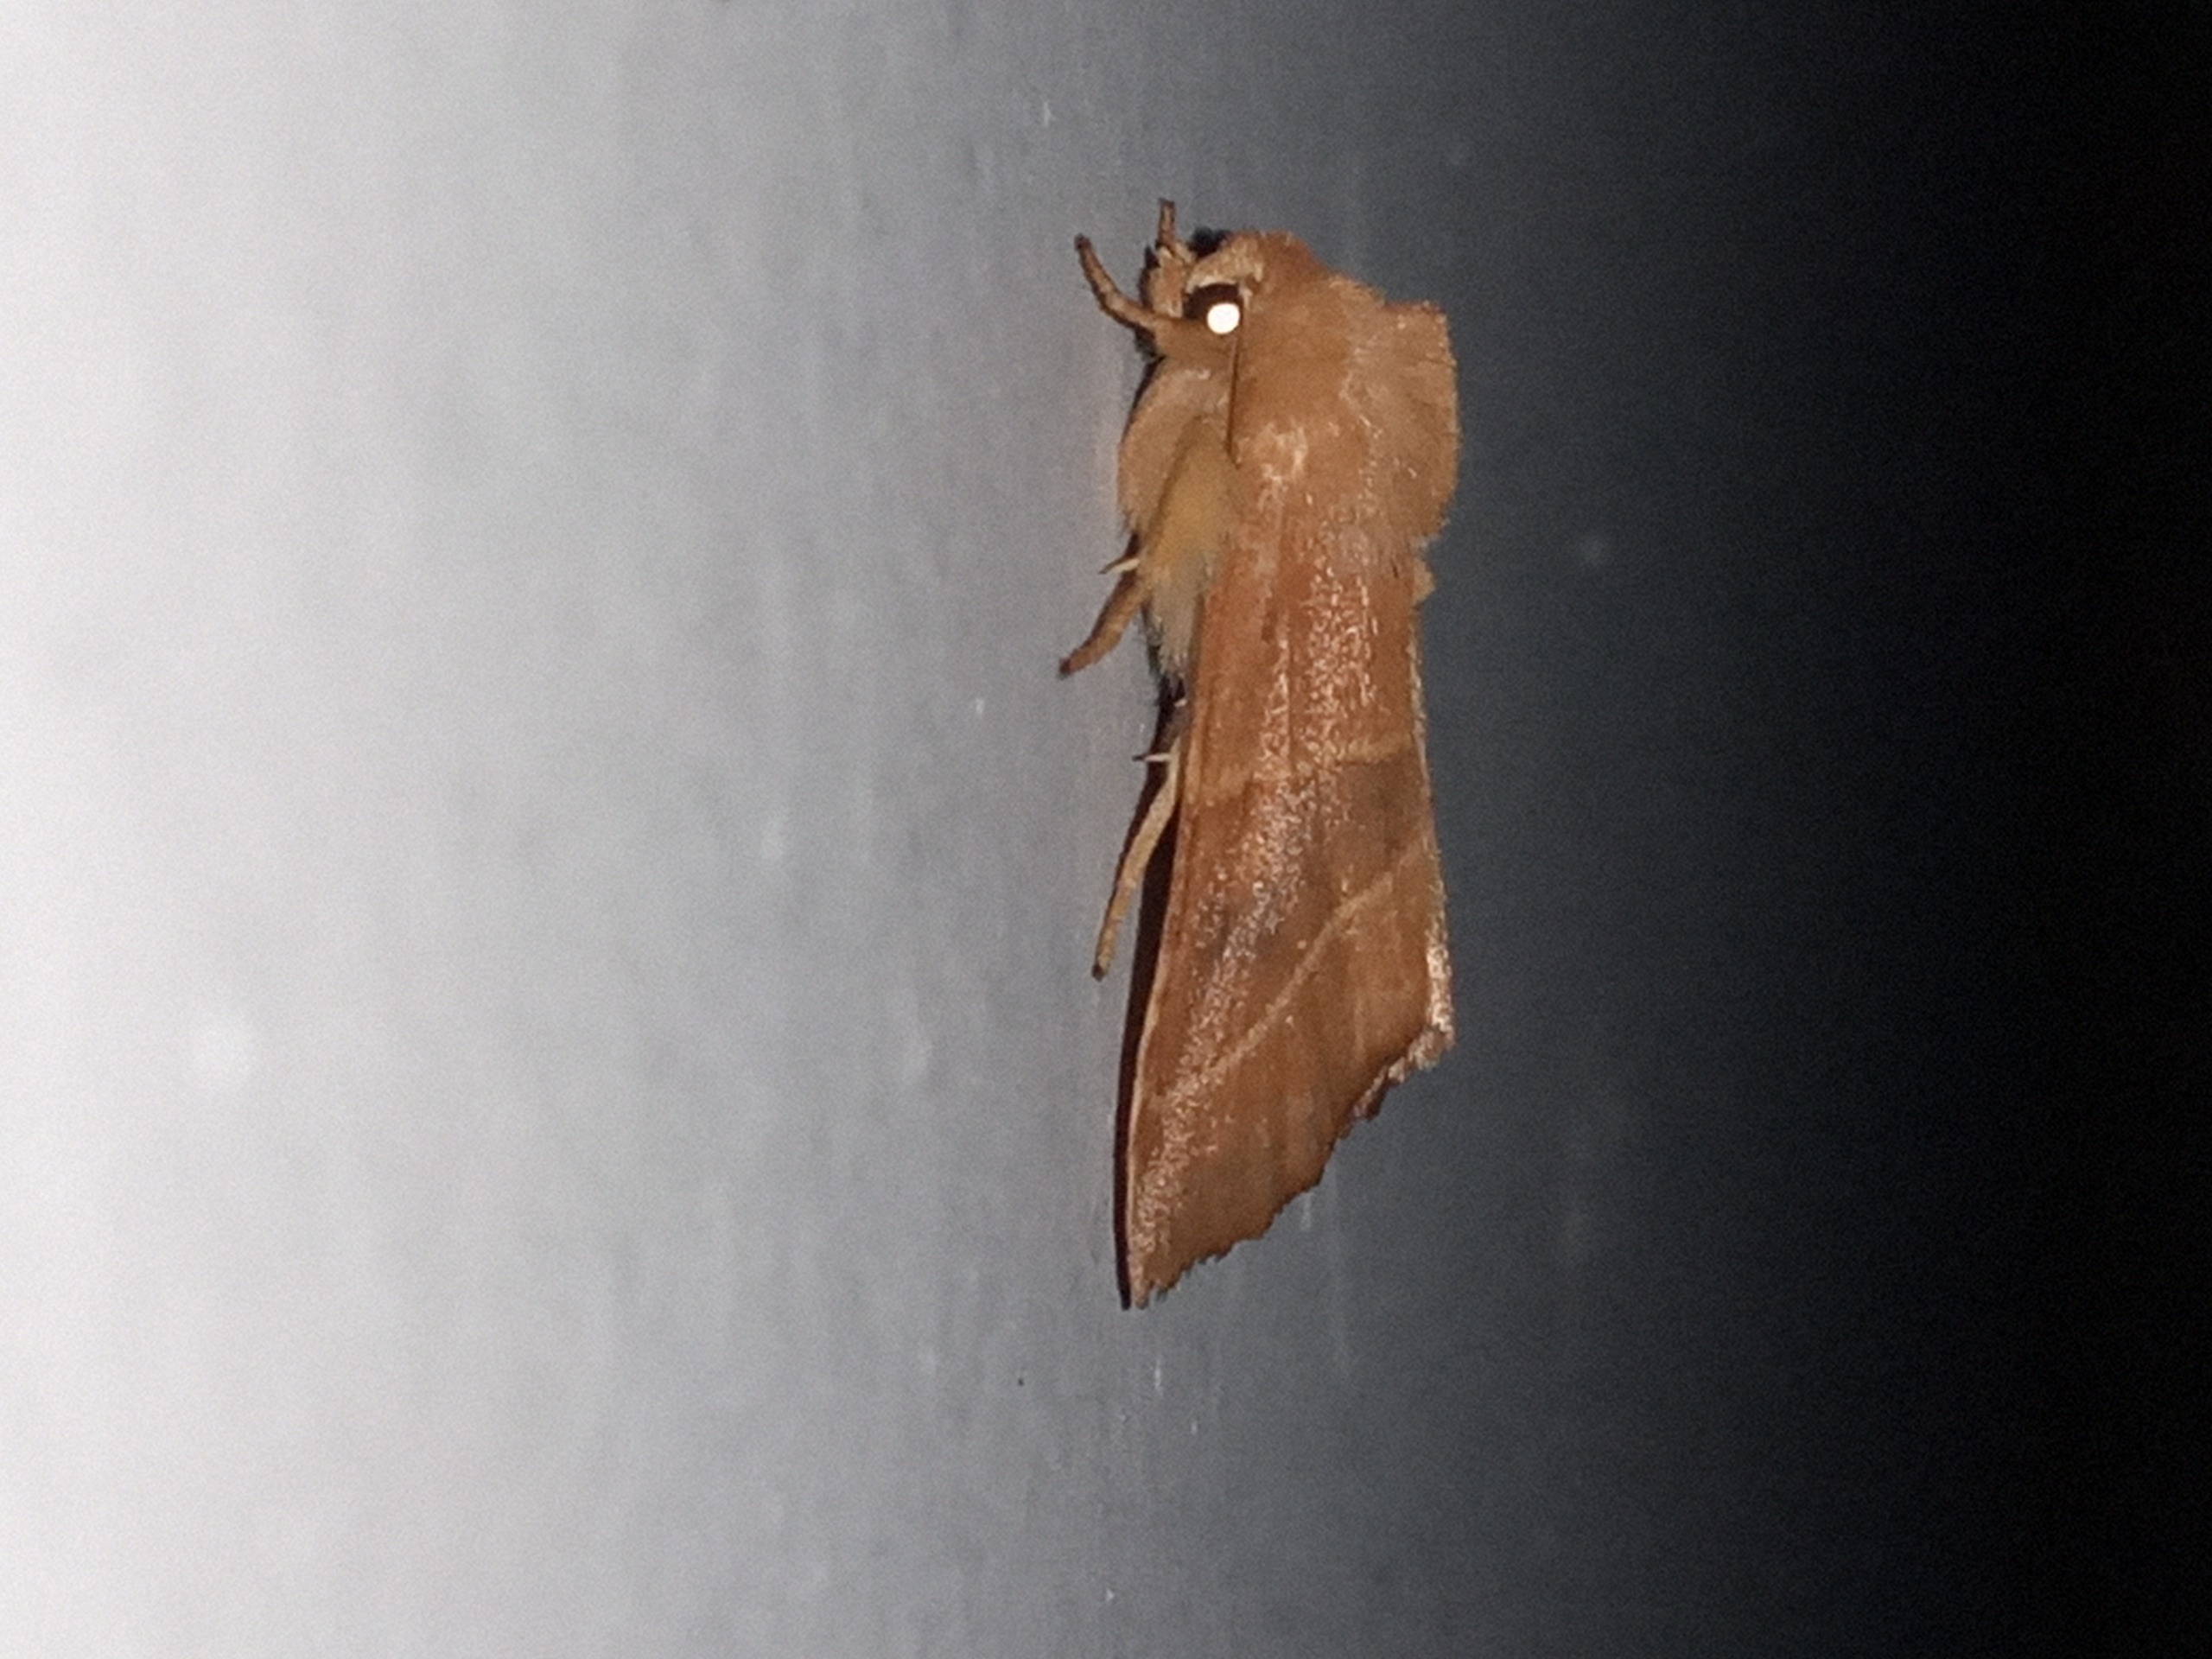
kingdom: Animalia
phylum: Arthropoda
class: Insecta
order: Lepidoptera
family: Noctuidae
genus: Atethmia
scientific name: Atethmia centrago
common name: Aske-septemberugle
